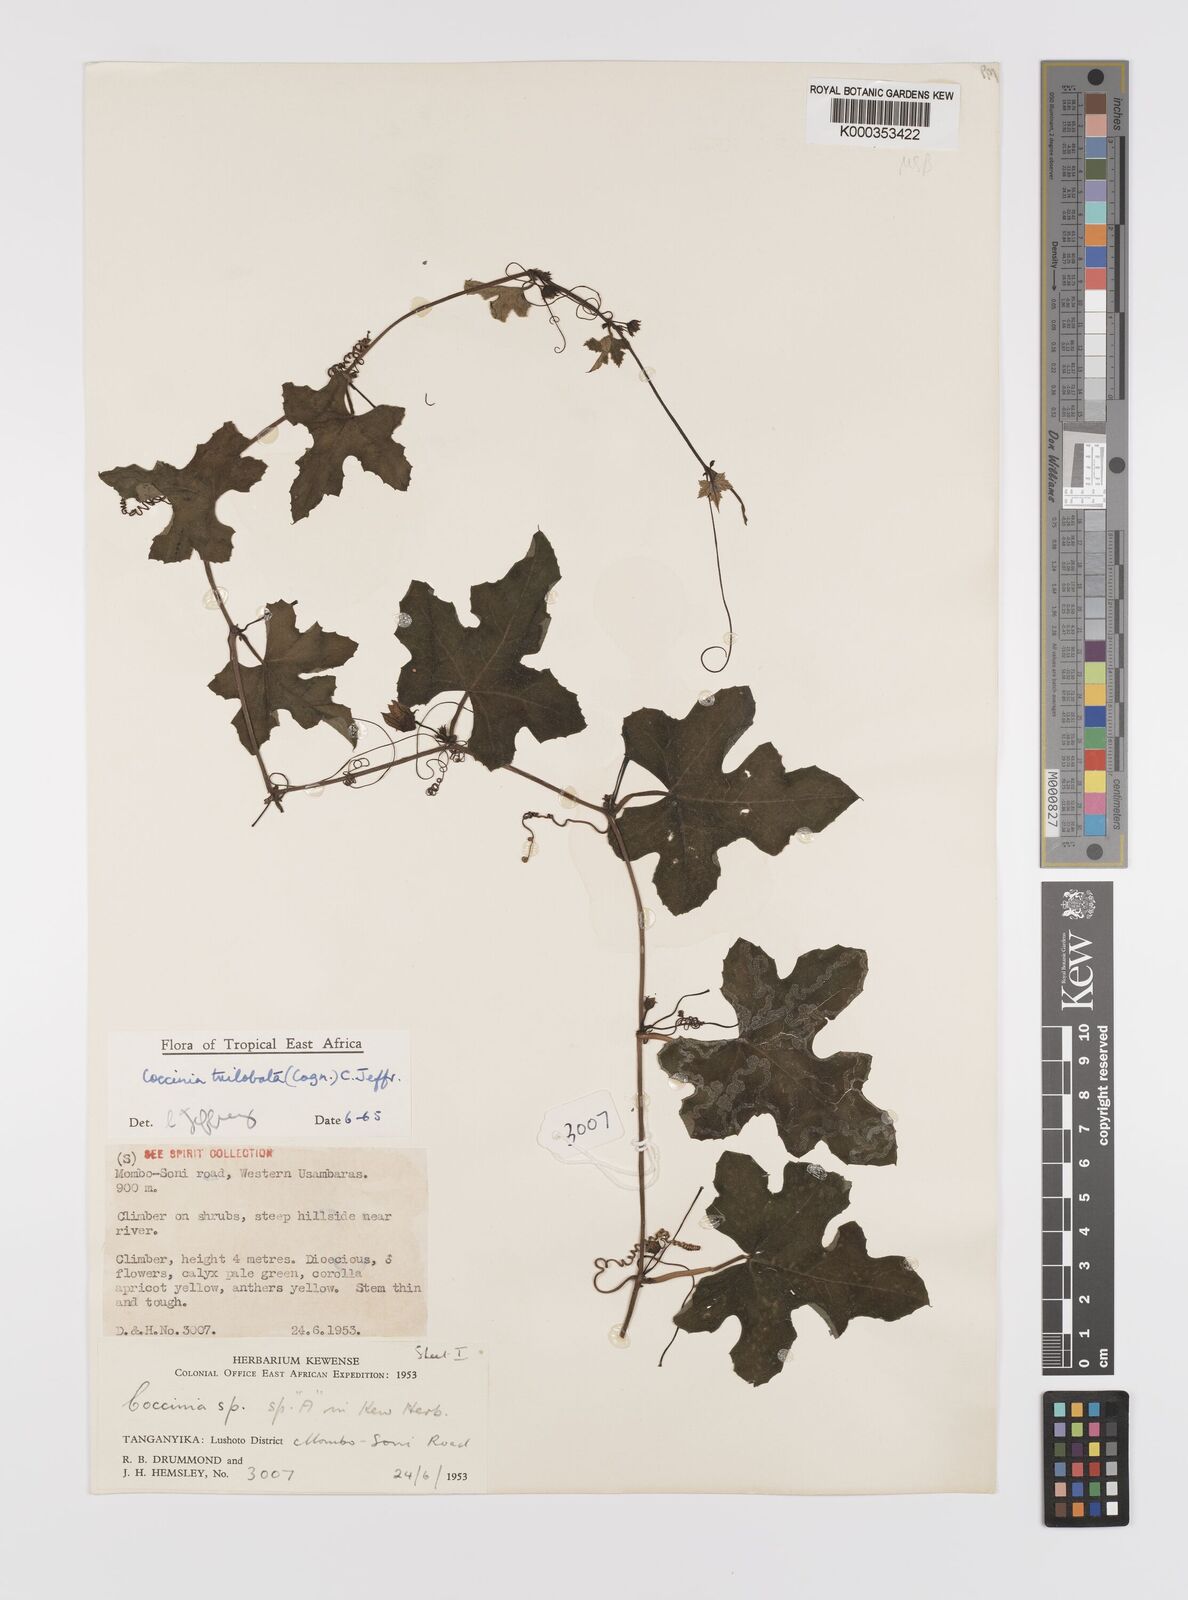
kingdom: Plantae
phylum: Tracheophyta
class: Magnoliopsida
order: Cucurbitales
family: Cucurbitaceae
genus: Coccinia
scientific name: Coccinia trilobata
